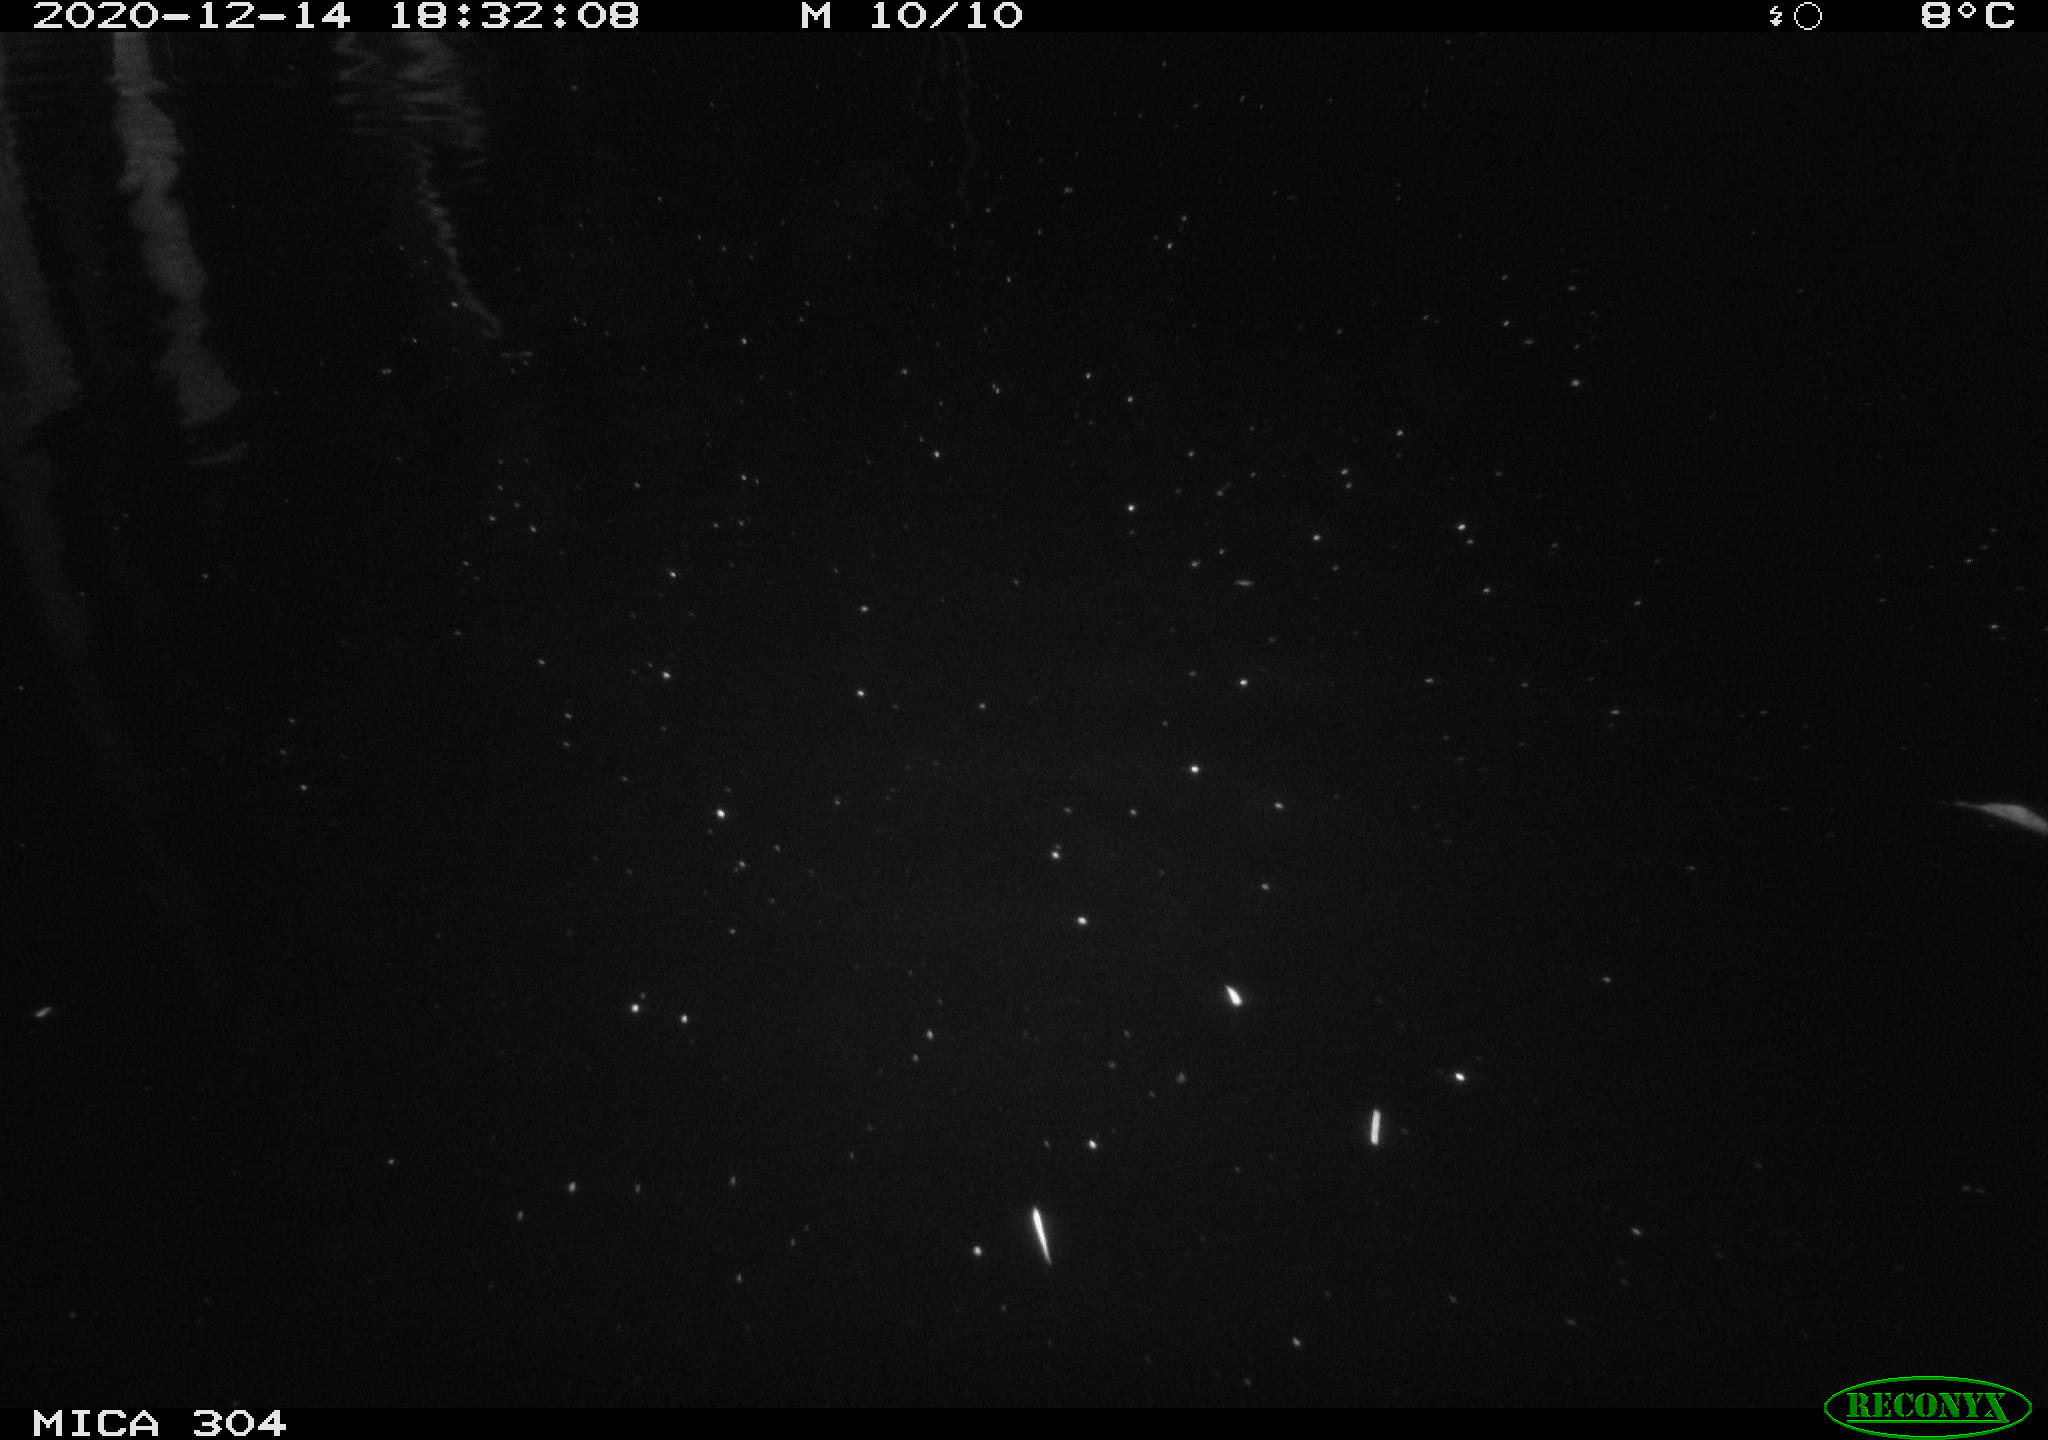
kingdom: Animalia
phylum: Chordata
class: Mammalia
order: Rodentia
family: Cricetidae
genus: Ondatra
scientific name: Ondatra zibethicus
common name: Muskrat
